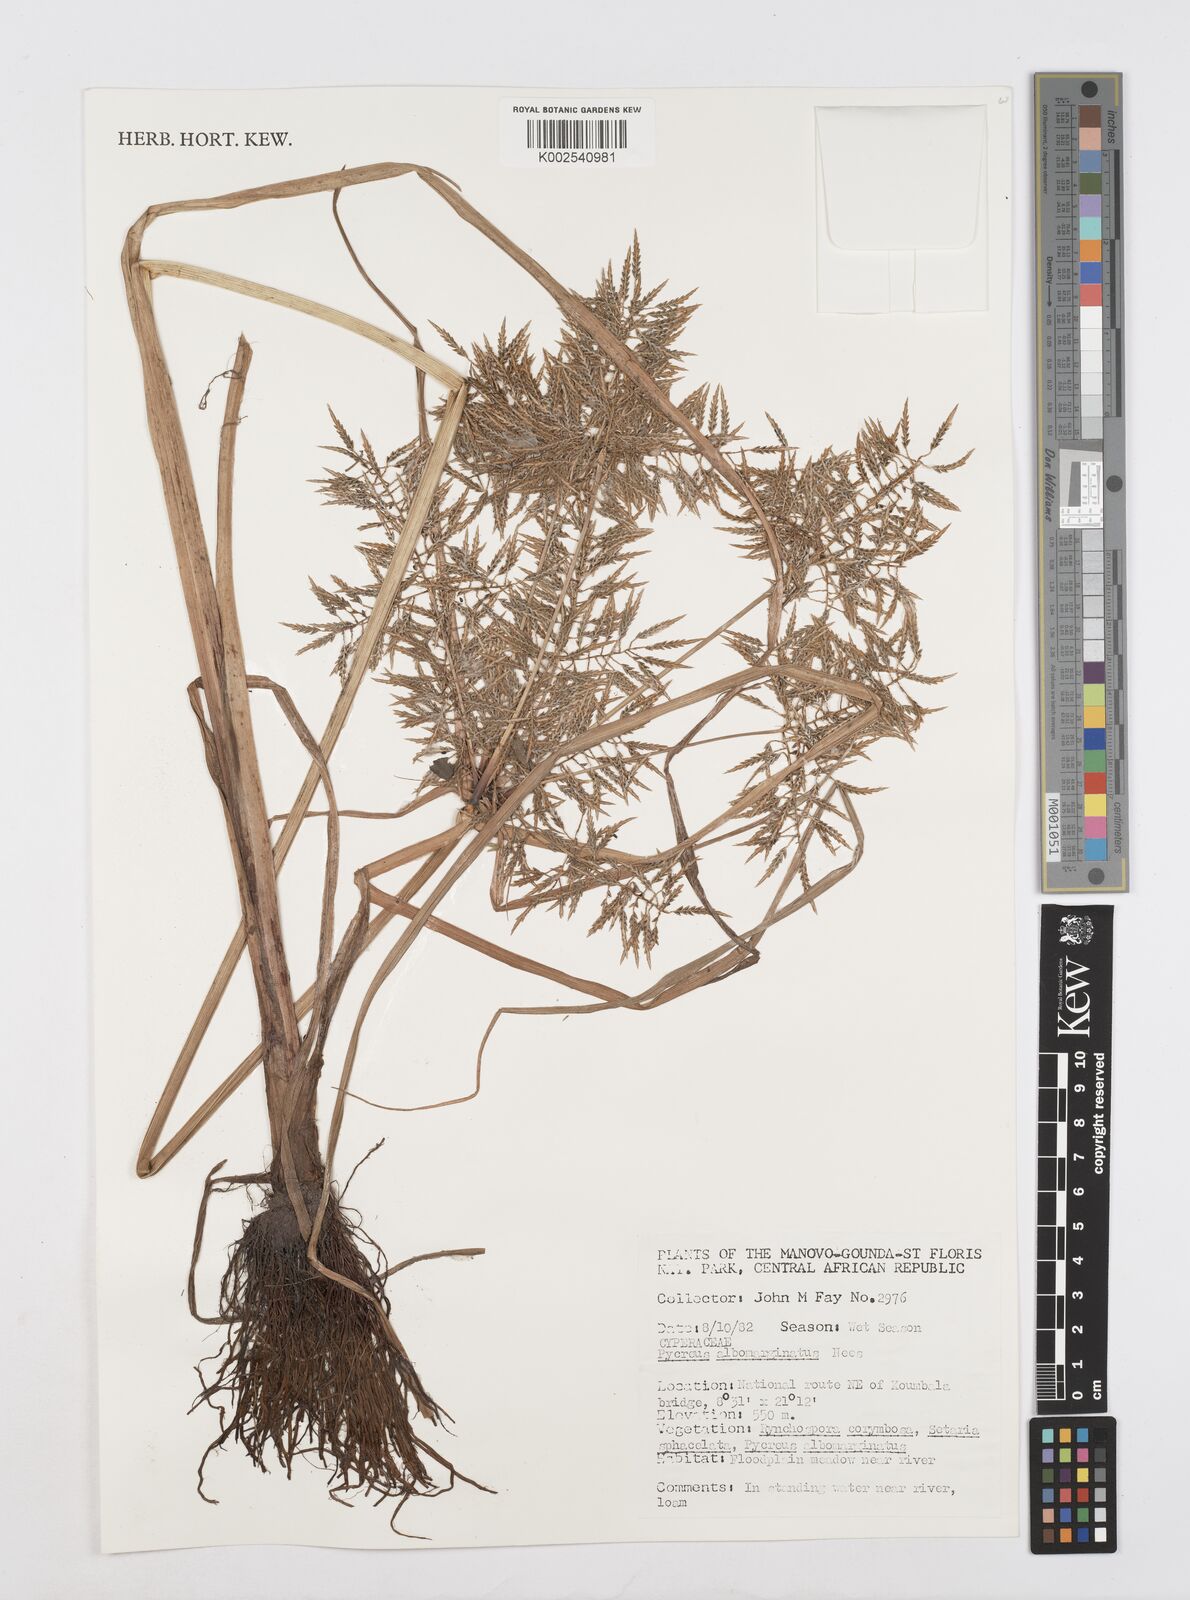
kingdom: Plantae
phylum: Tracheophyta
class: Liliopsida
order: Poales
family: Cyperaceae
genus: Cyperus
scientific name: Cyperus macrostachyos
